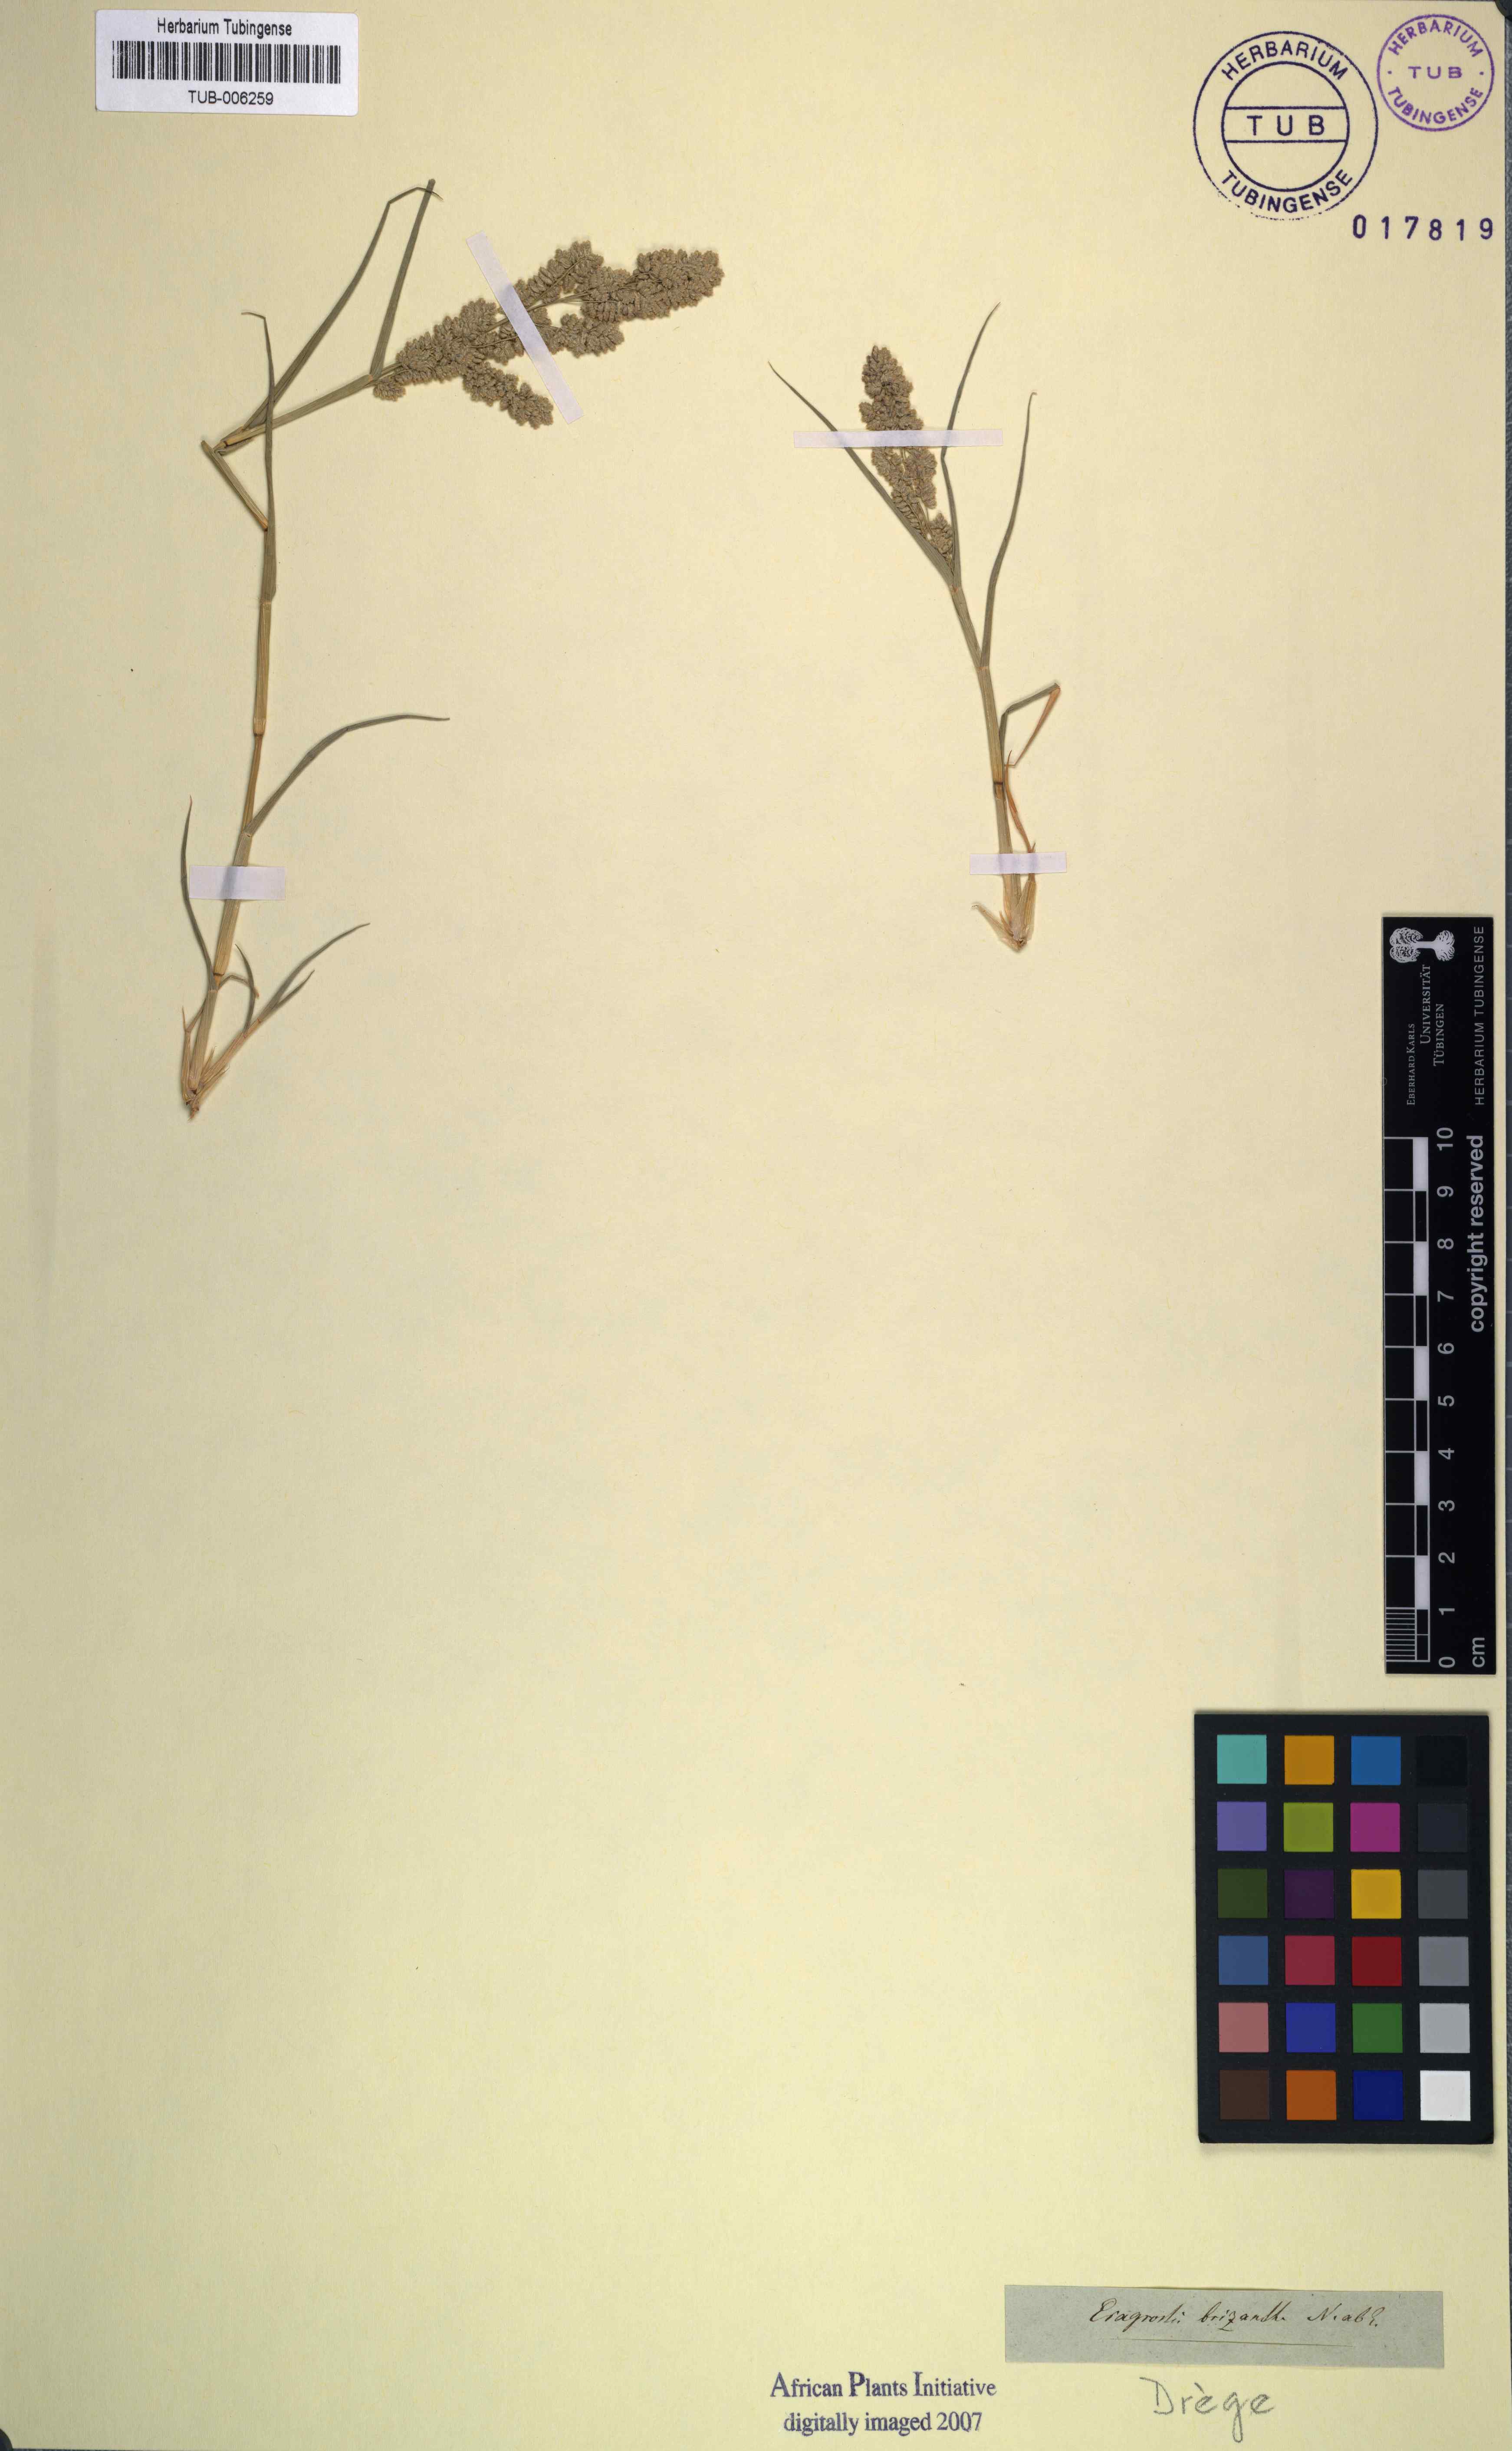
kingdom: Plantae
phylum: Tracheophyta
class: Liliopsida
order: Poales
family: Poaceae
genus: Eragrostis
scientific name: Eragrostis brizantha
